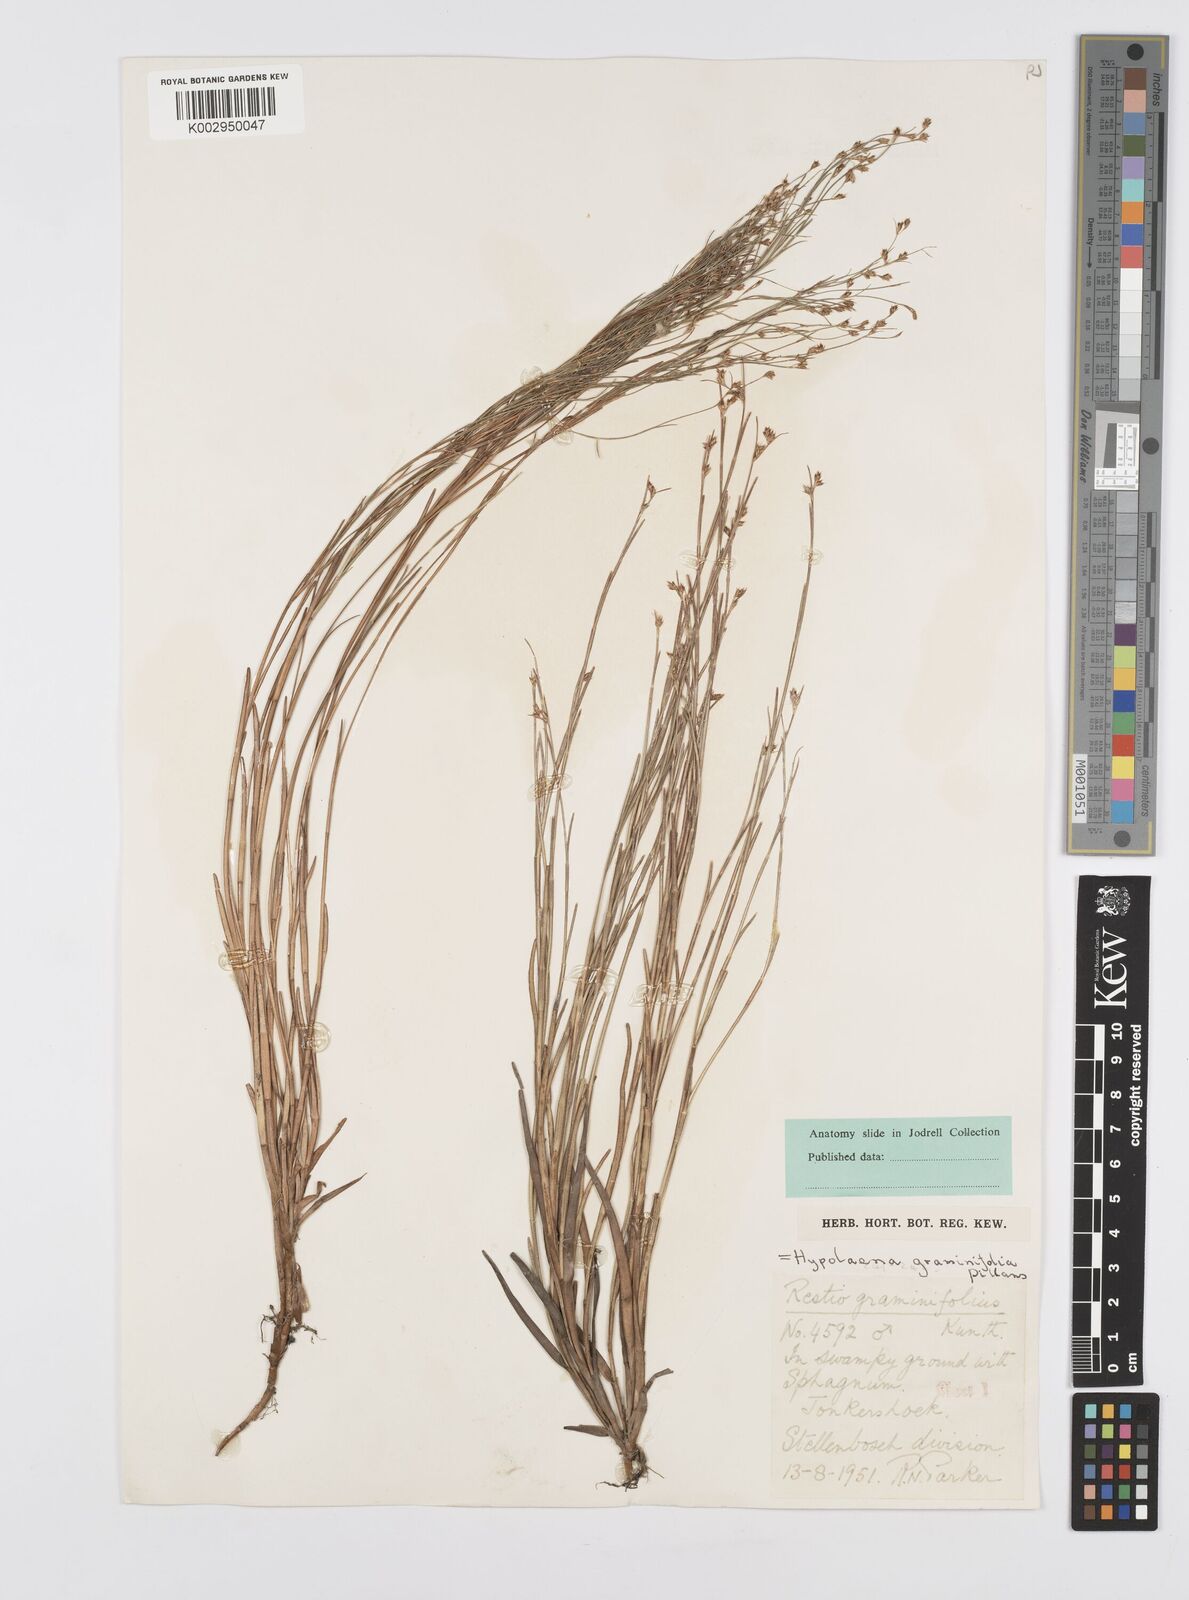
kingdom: Plantae
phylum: Tracheophyta
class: Liliopsida
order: Poales
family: Restionaceae
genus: Anthochortus
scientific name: Anthochortus graminifolius
